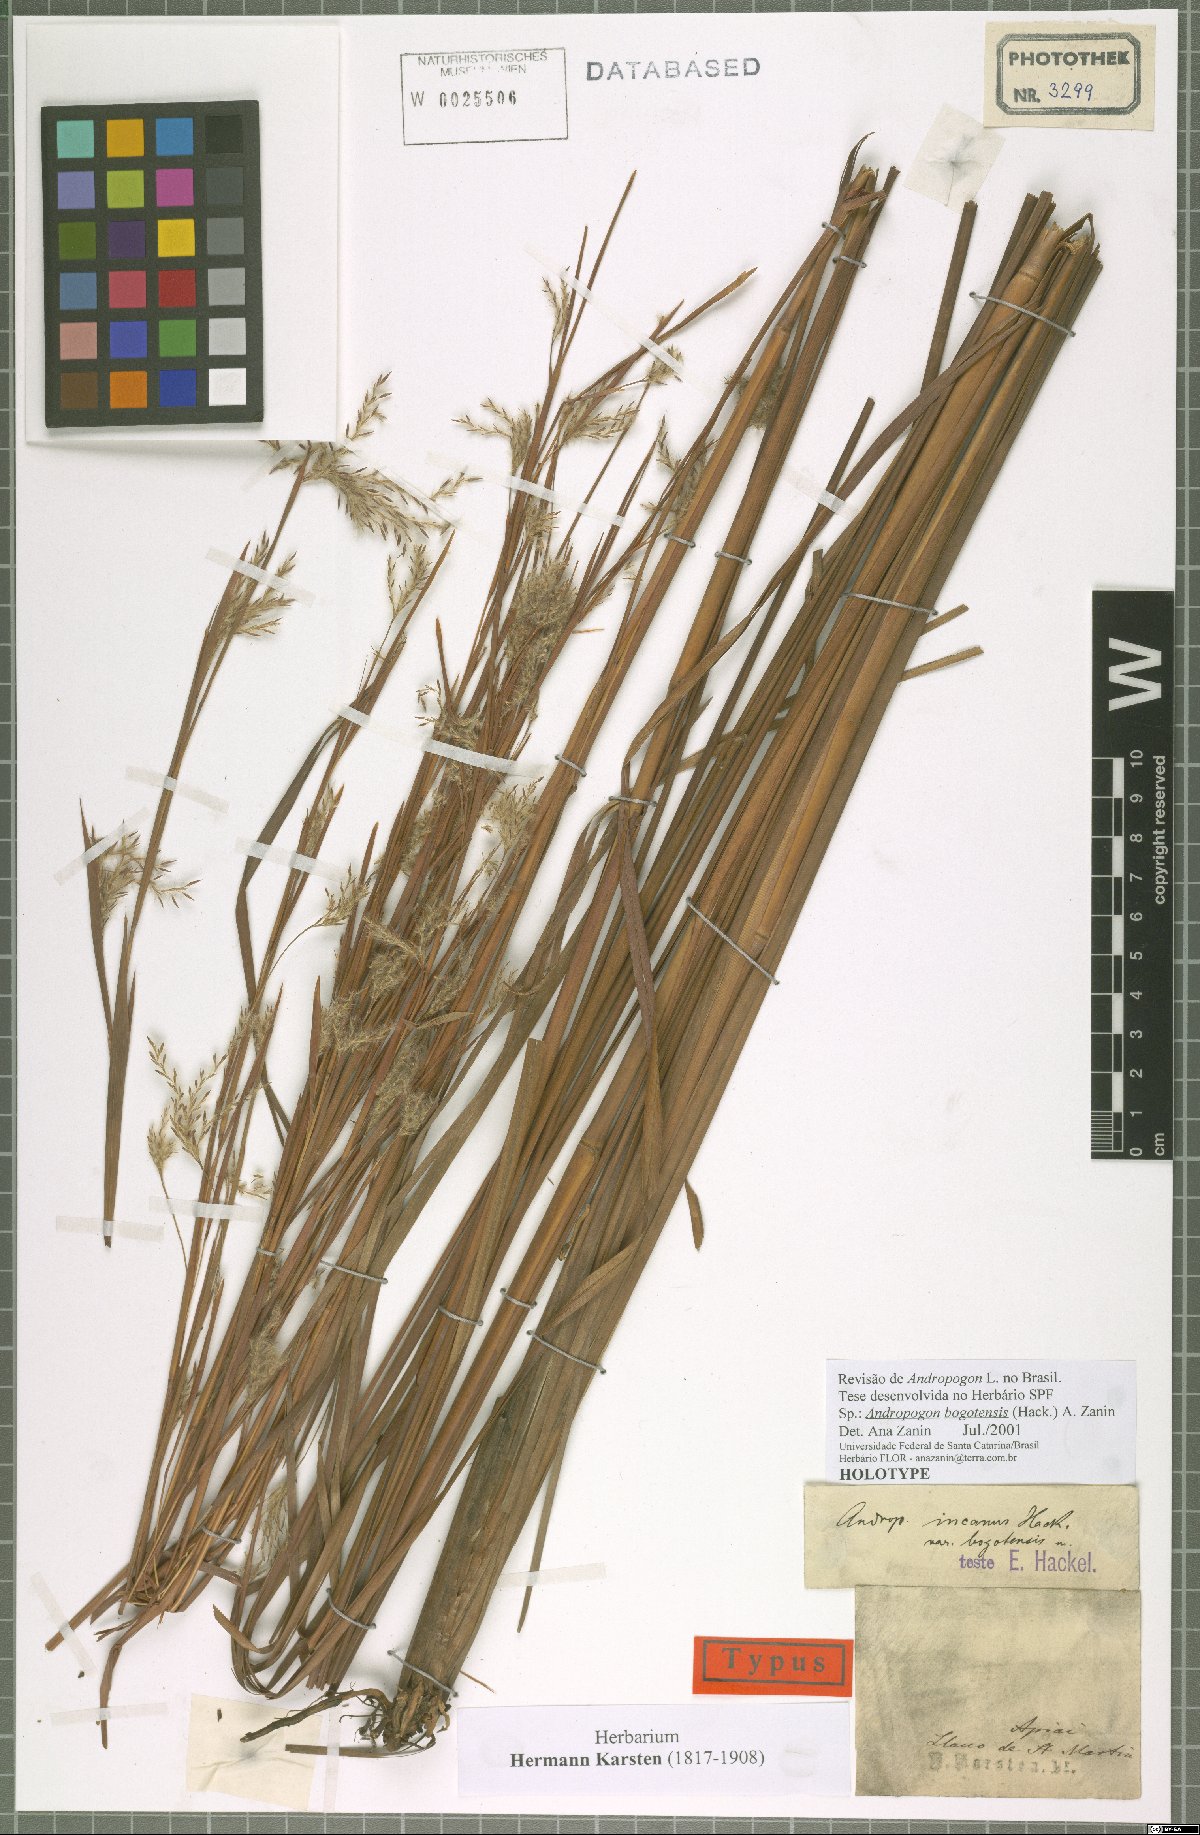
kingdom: Plantae
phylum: Tracheophyta
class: Liliopsida
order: Poales
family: Poaceae
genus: Andropogon
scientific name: Andropogon multiflorus
